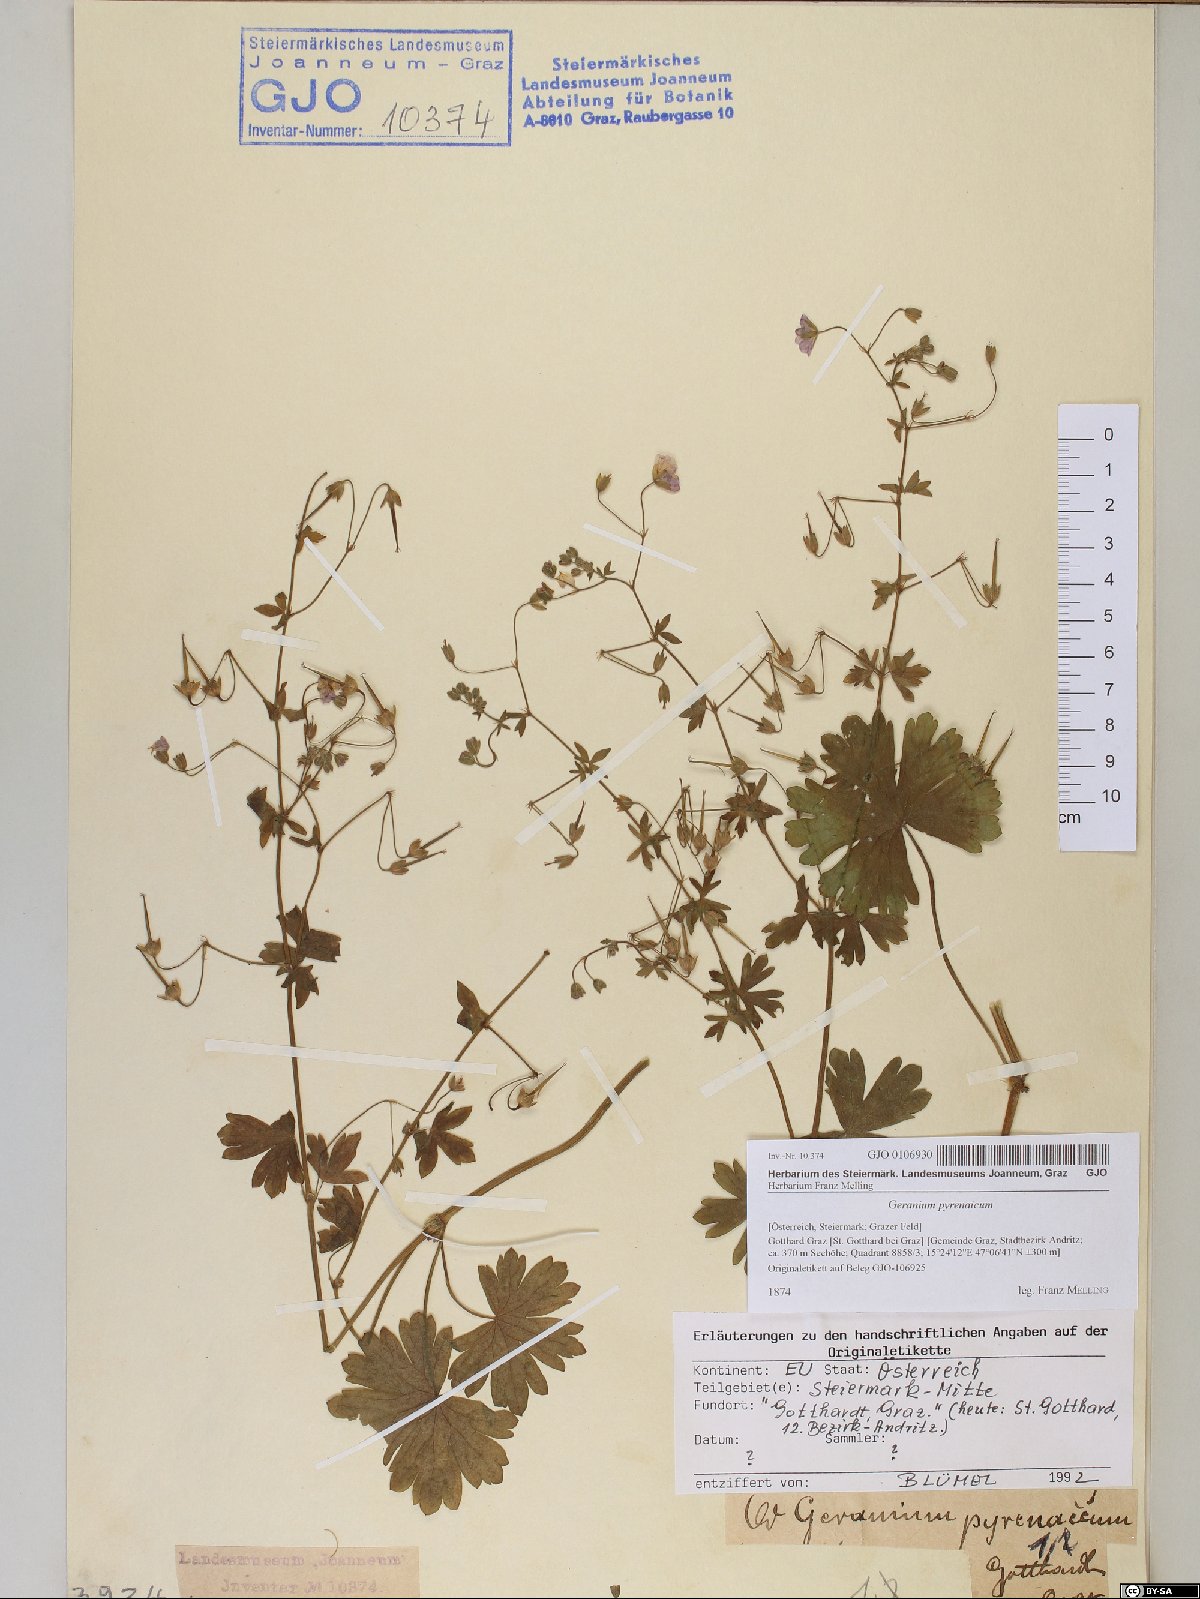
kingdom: Plantae
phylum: Tracheophyta
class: Magnoliopsida
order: Geraniales
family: Geraniaceae
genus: Geranium
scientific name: Geranium pyrenaicum
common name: Hedgerow crane's-bill
